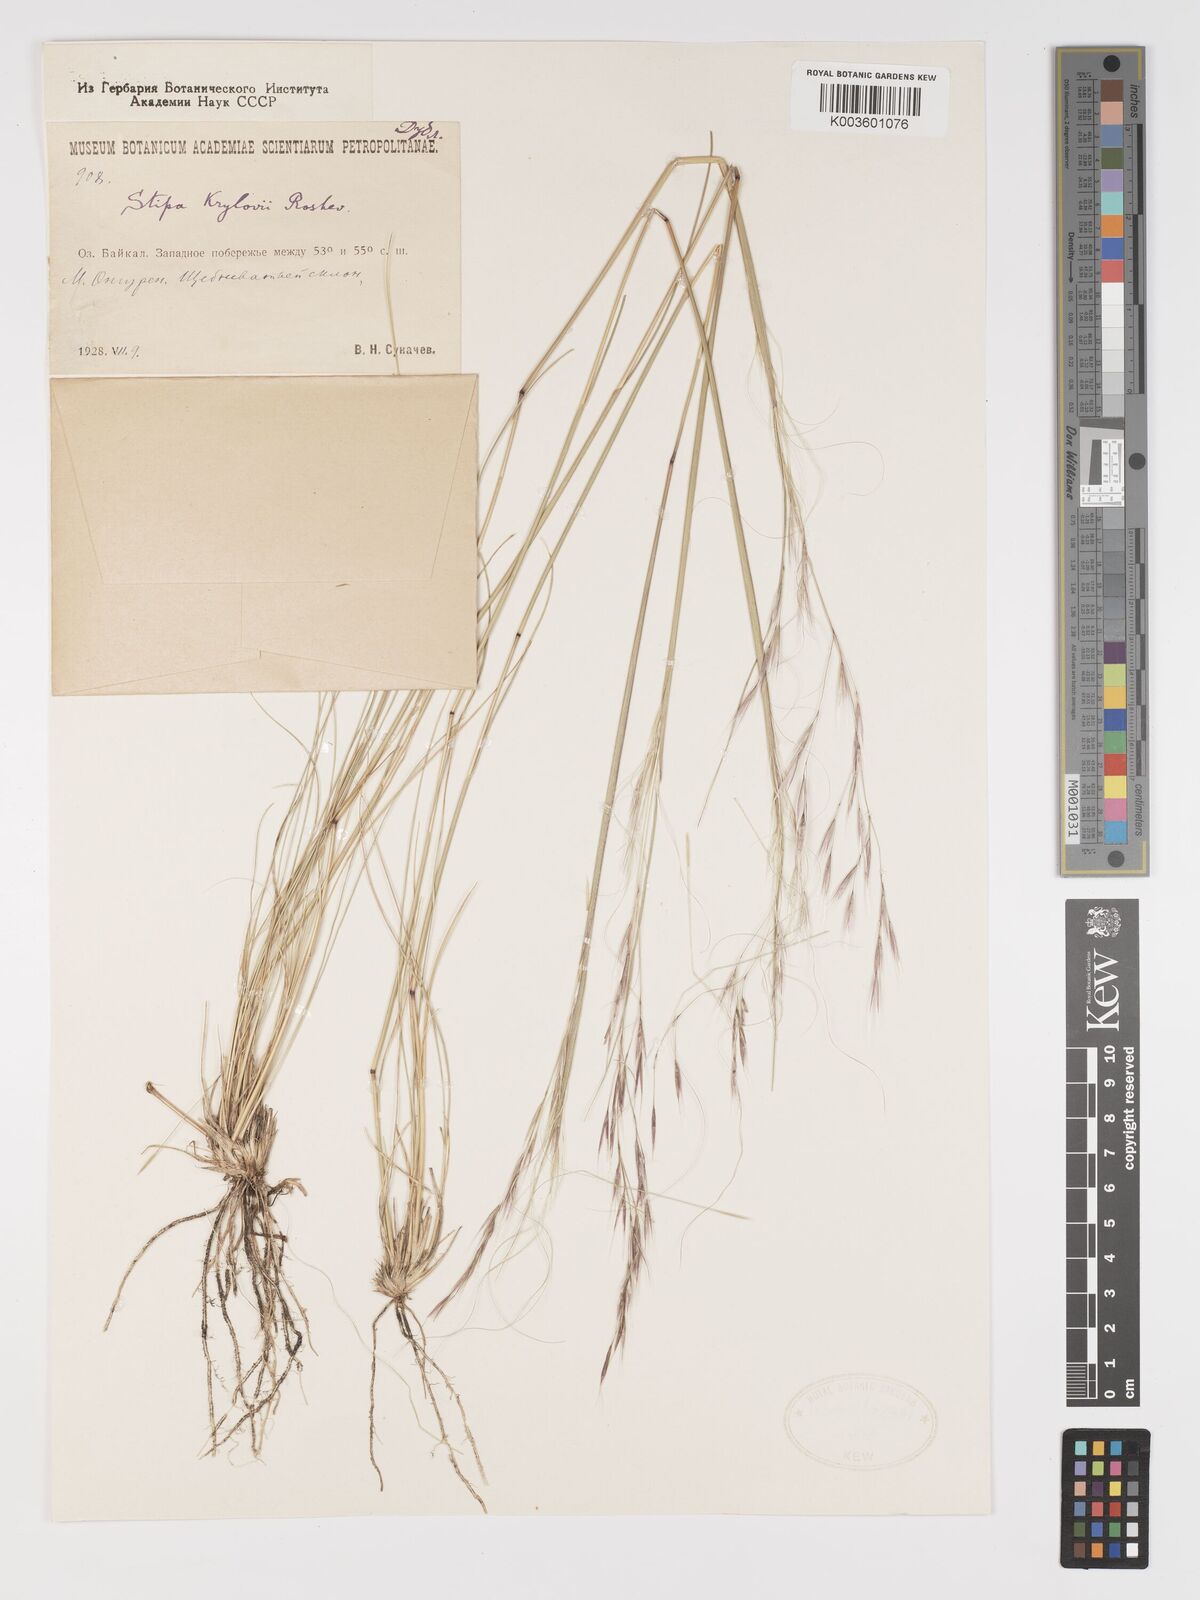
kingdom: Plantae
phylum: Tracheophyta
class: Liliopsida
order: Poales
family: Poaceae
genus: Stipa
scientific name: Stipa krylovii
